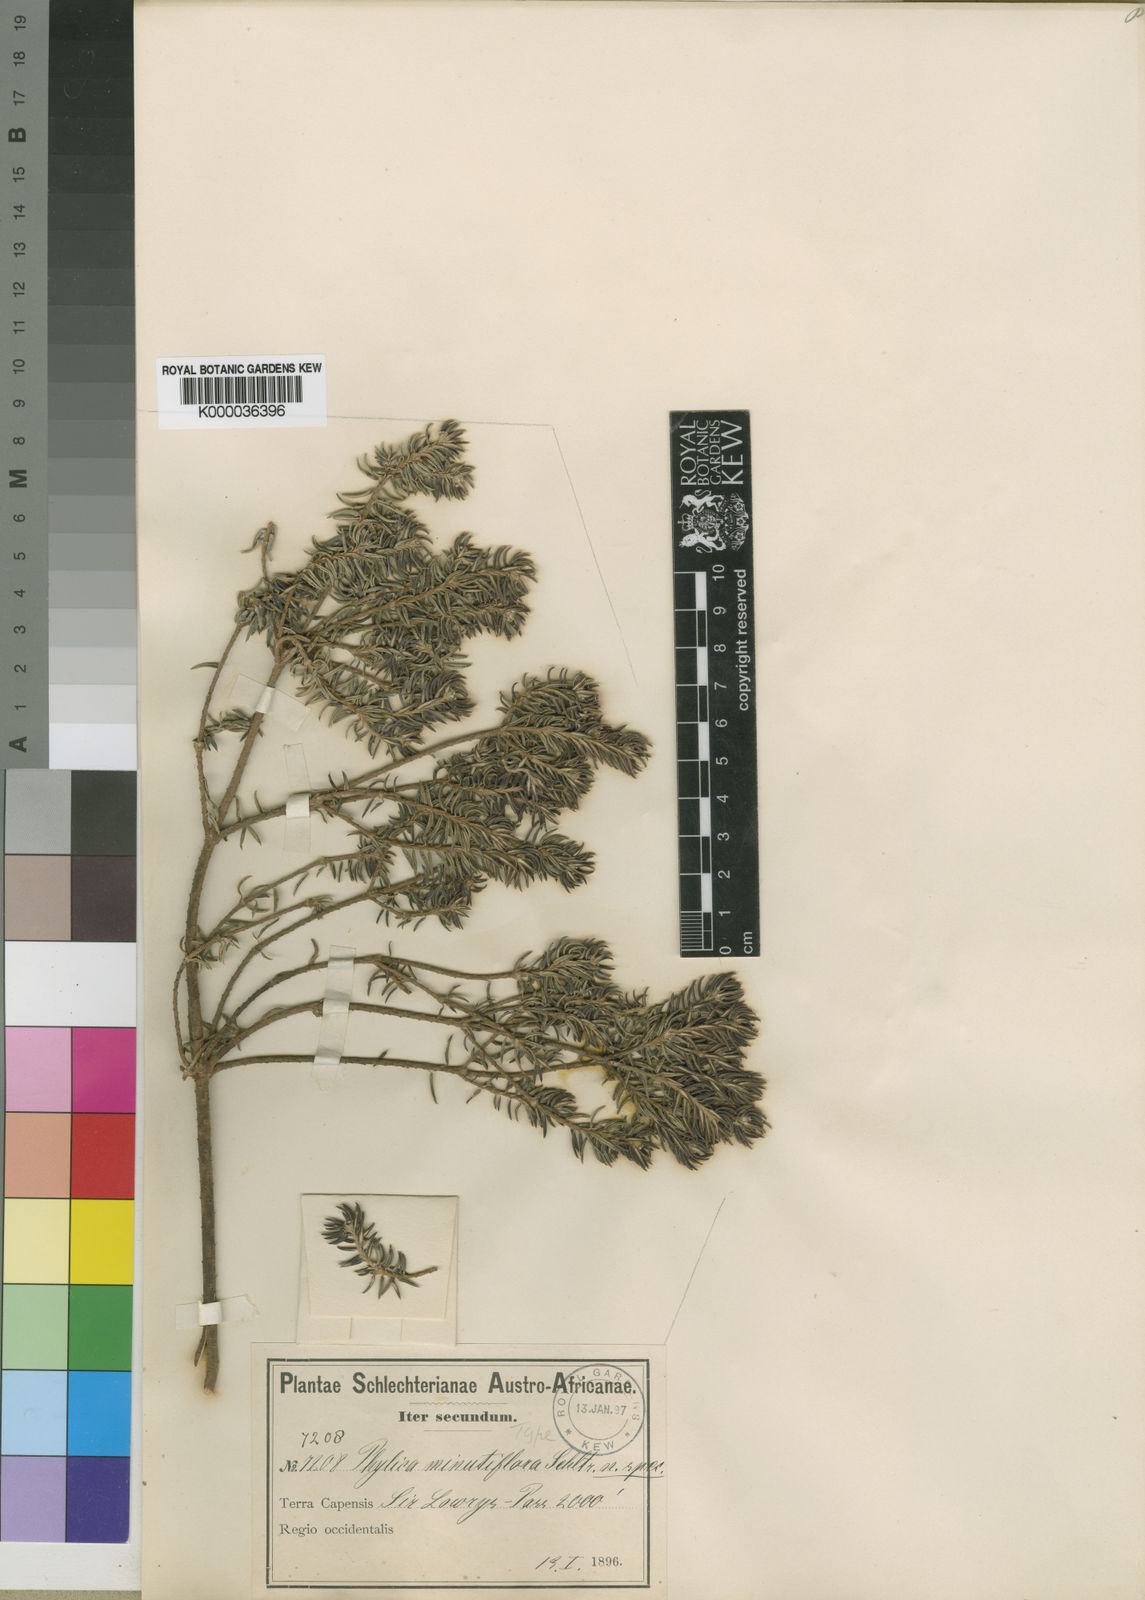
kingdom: Plantae
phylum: Tracheophyta
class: Magnoliopsida
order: Rosales
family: Rhamnaceae
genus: Phylica
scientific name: Phylica minutiflora
